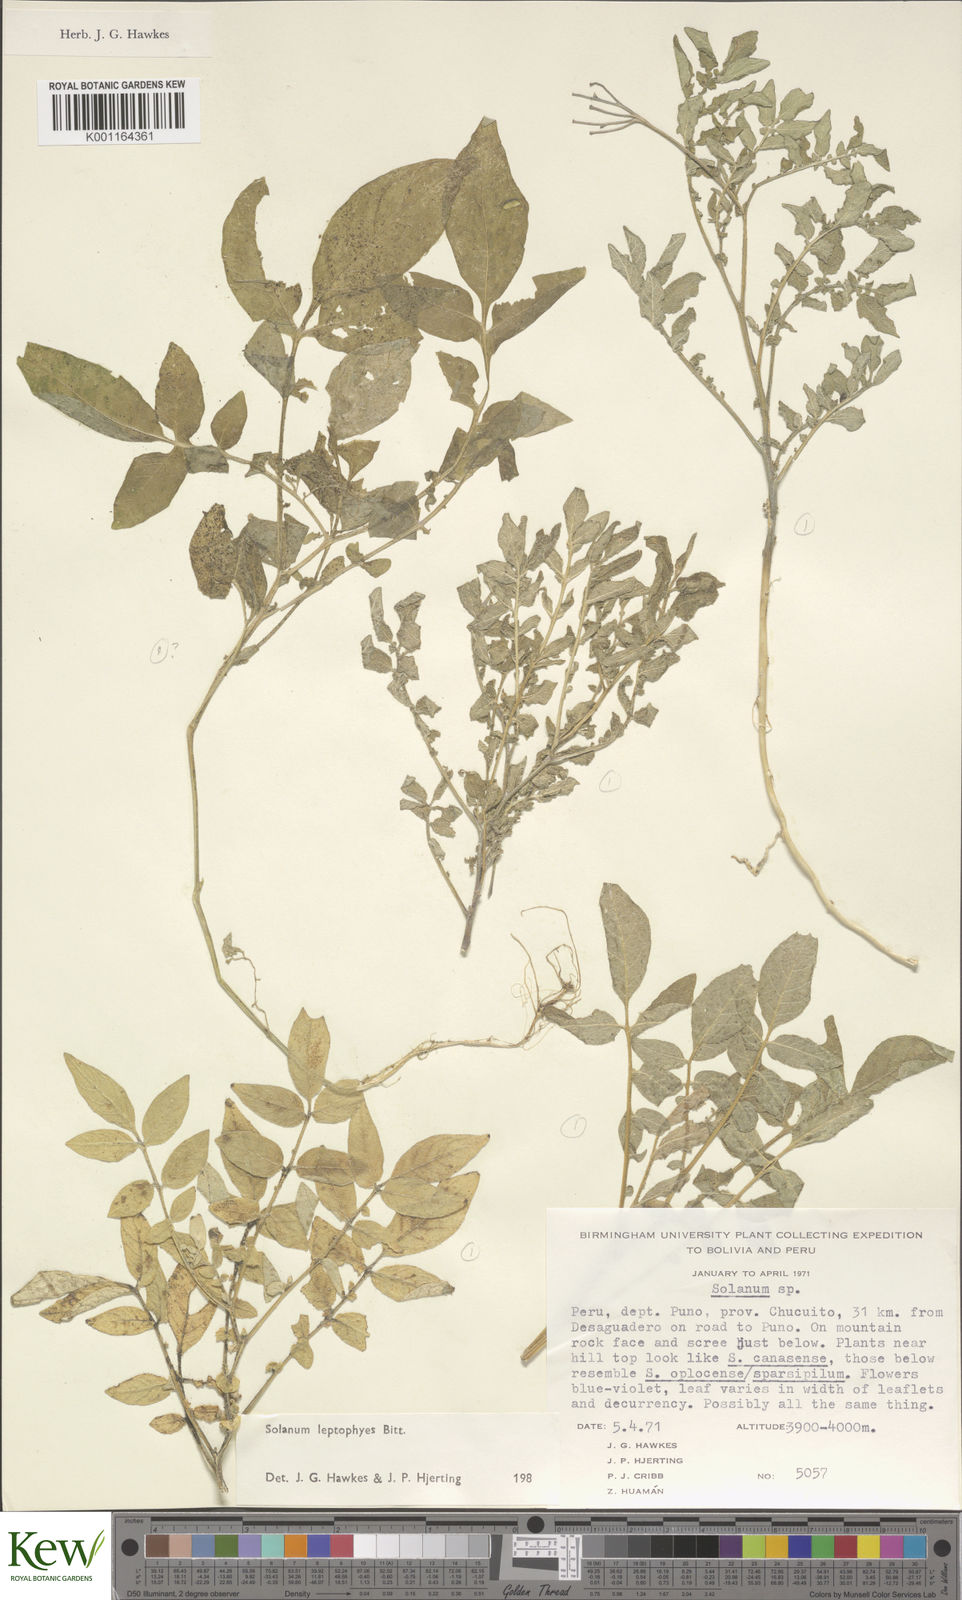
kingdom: Plantae
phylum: Tracheophyta
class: Magnoliopsida
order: Solanales
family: Solanaceae
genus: Solanum
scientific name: Solanum brevicaule
